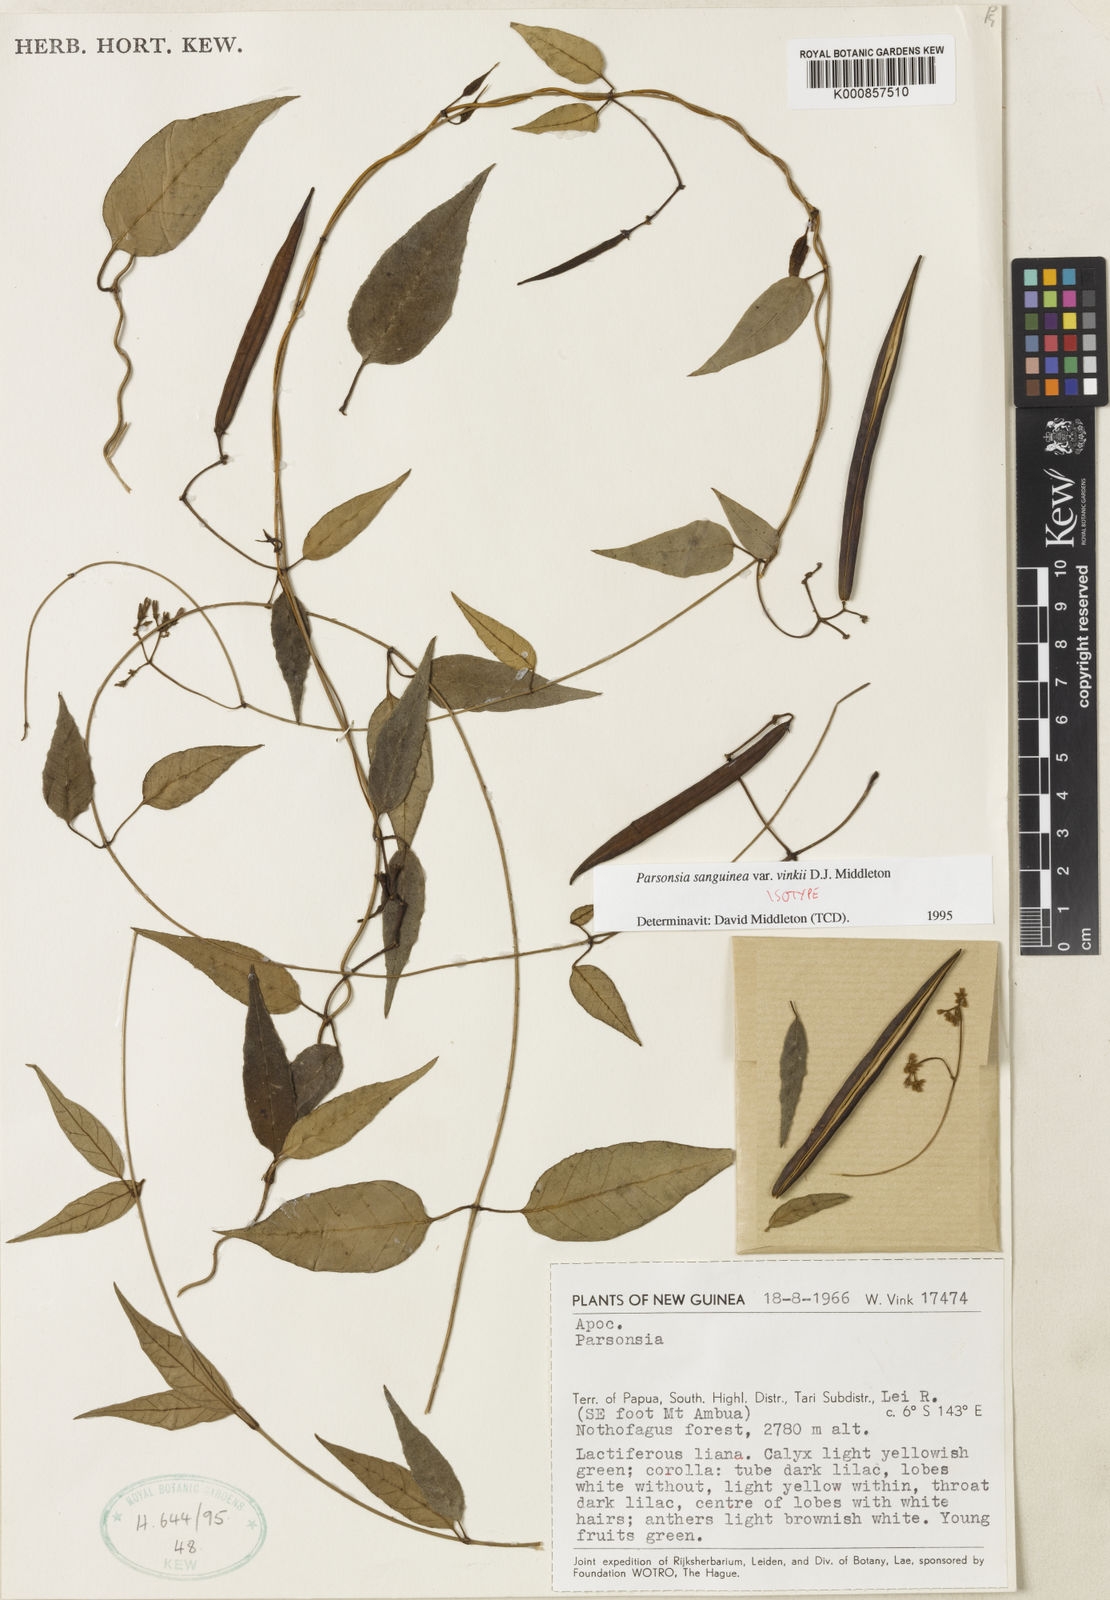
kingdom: Plantae
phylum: Tracheophyta
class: Magnoliopsida
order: Gentianales
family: Apocynaceae
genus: Parsonsia
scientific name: Parsonsia sanguinea
